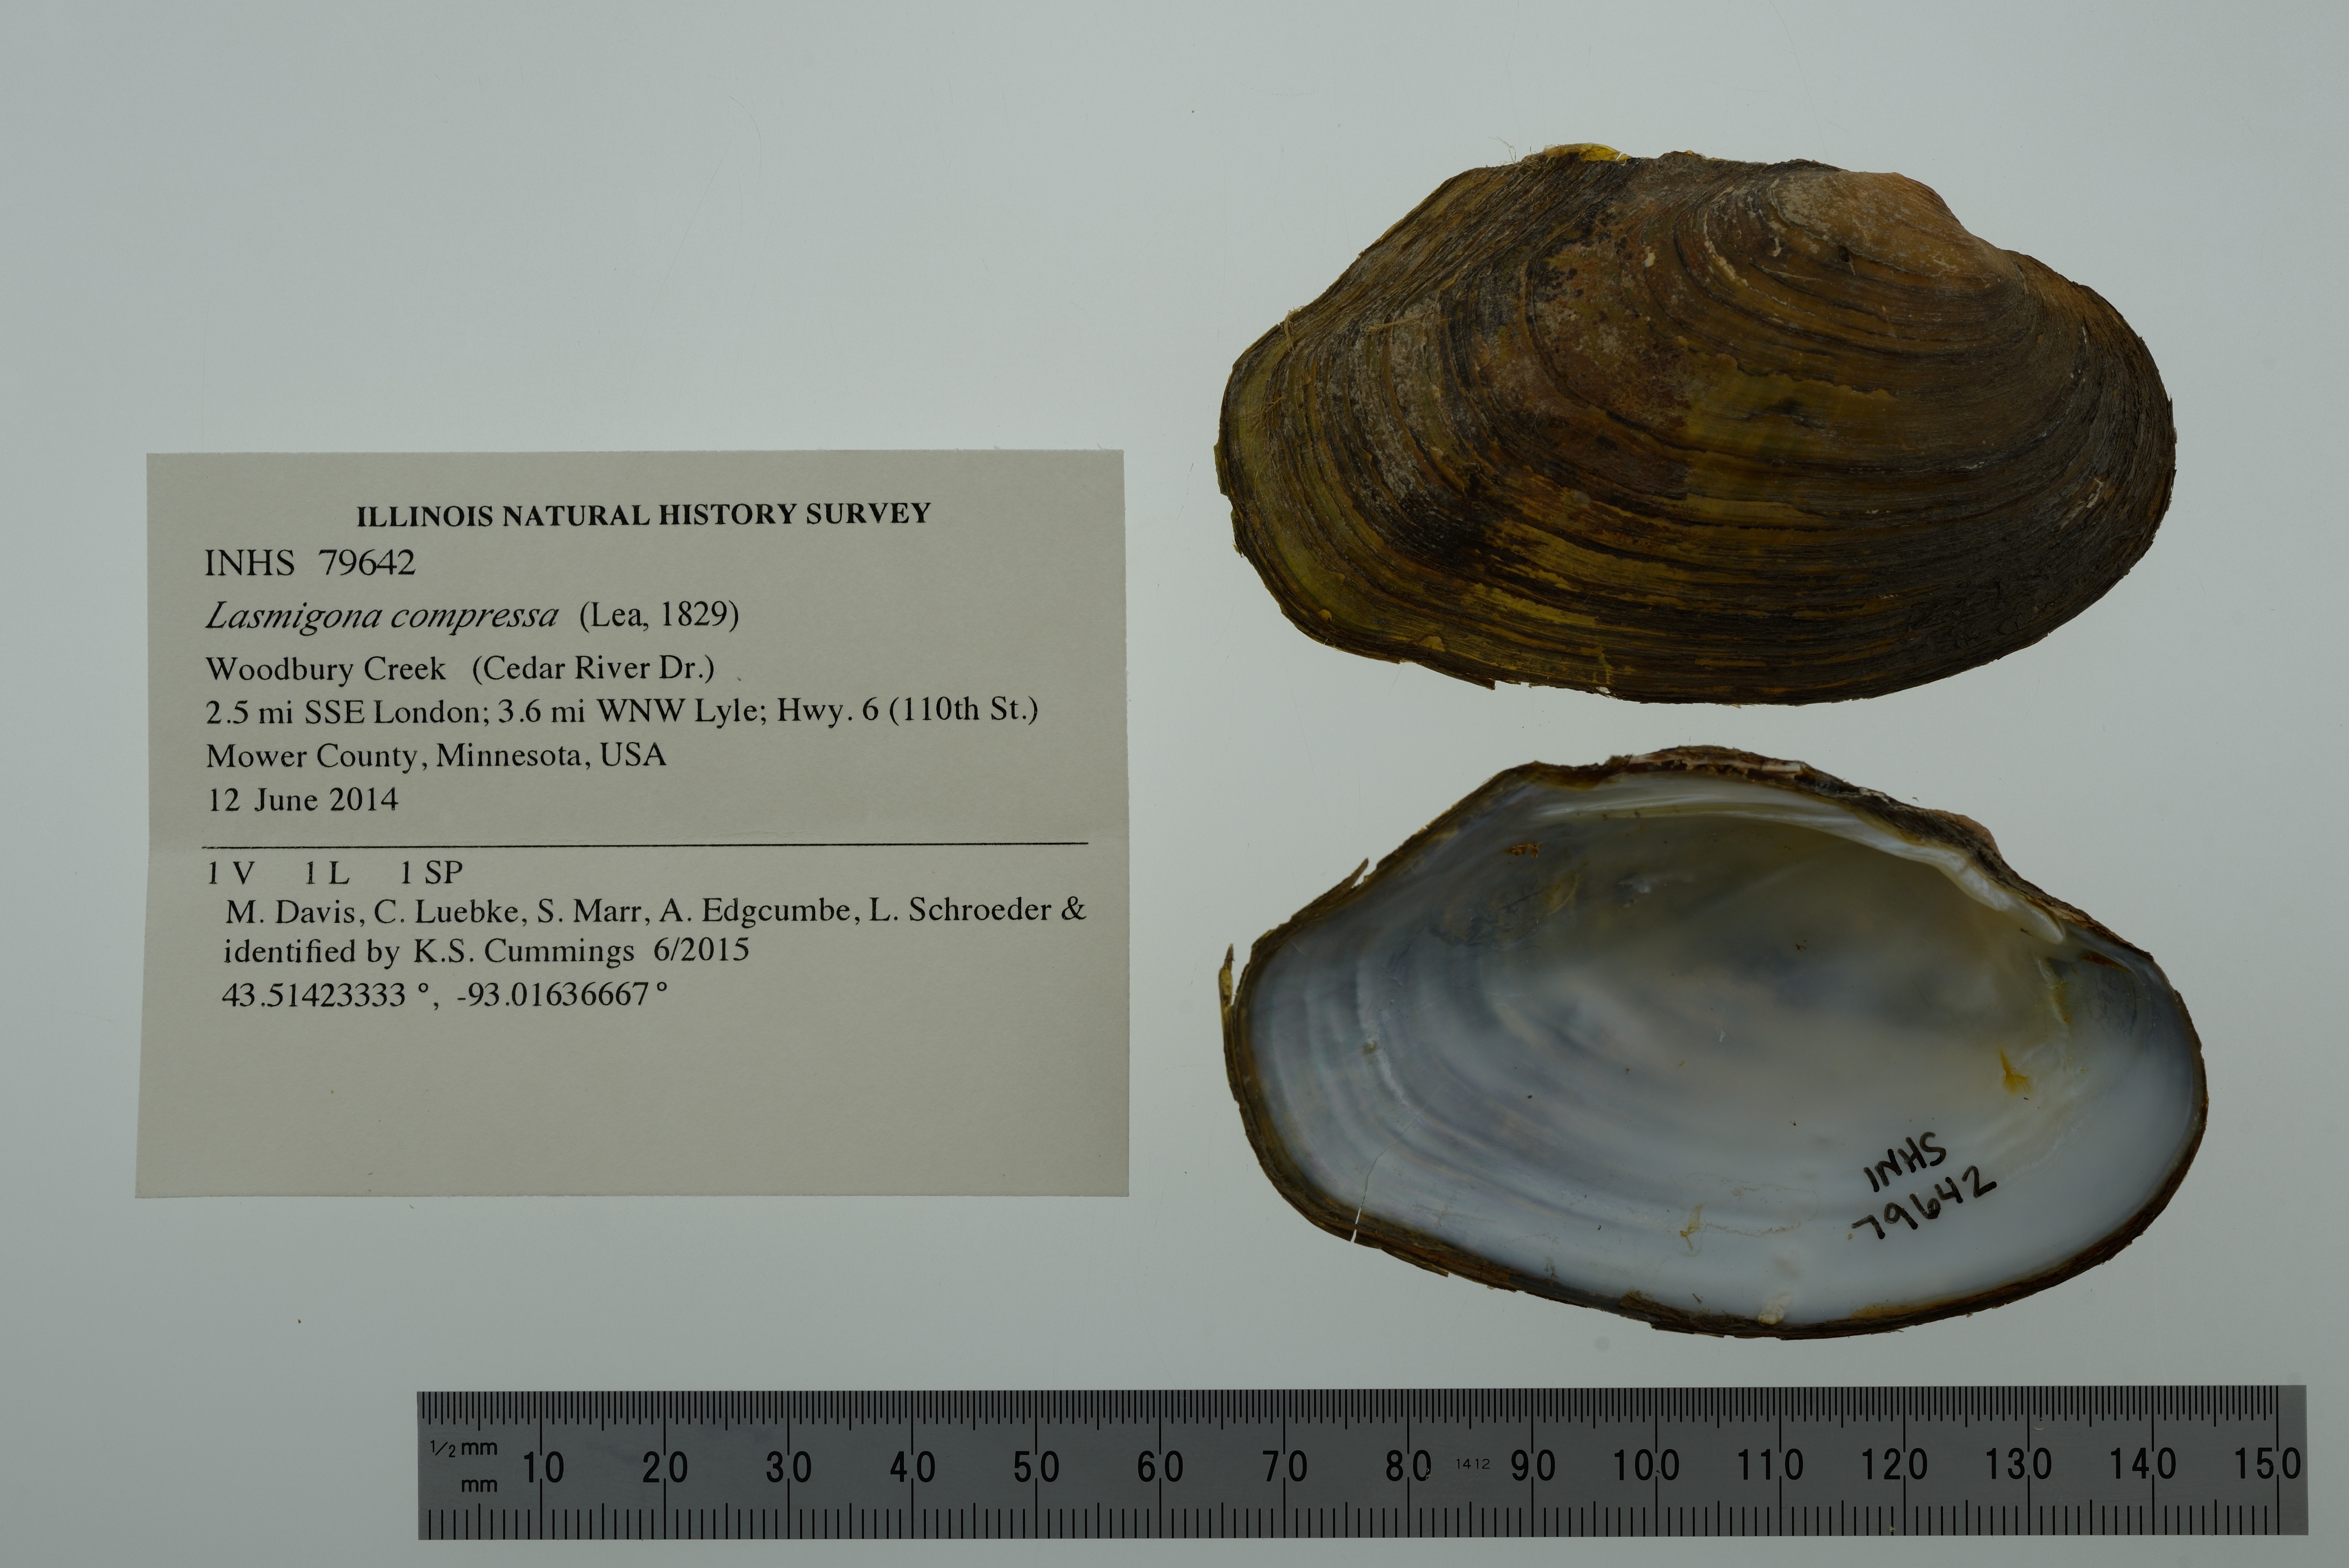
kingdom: Animalia
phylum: Mollusca
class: Bivalvia
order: Unionida
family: Unionidae
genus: Lasmigona
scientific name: Lasmigona compressa
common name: Creek heelsplitter
